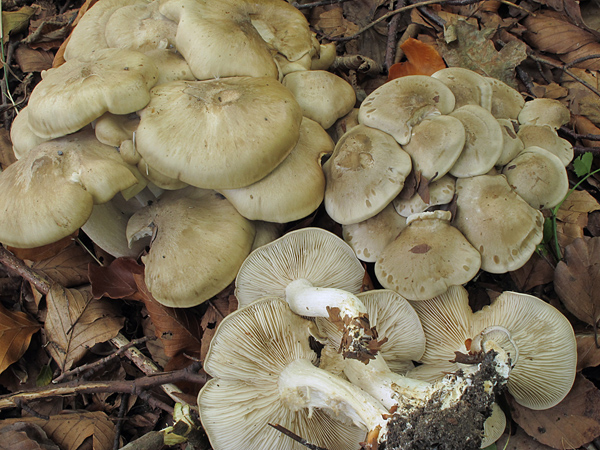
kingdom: Fungi
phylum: Basidiomycota
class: Agaricomycetes
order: Agaricales
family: Lyophyllaceae
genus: Lyophyllum
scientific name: Lyophyllum decastes
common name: Clustered domecap
